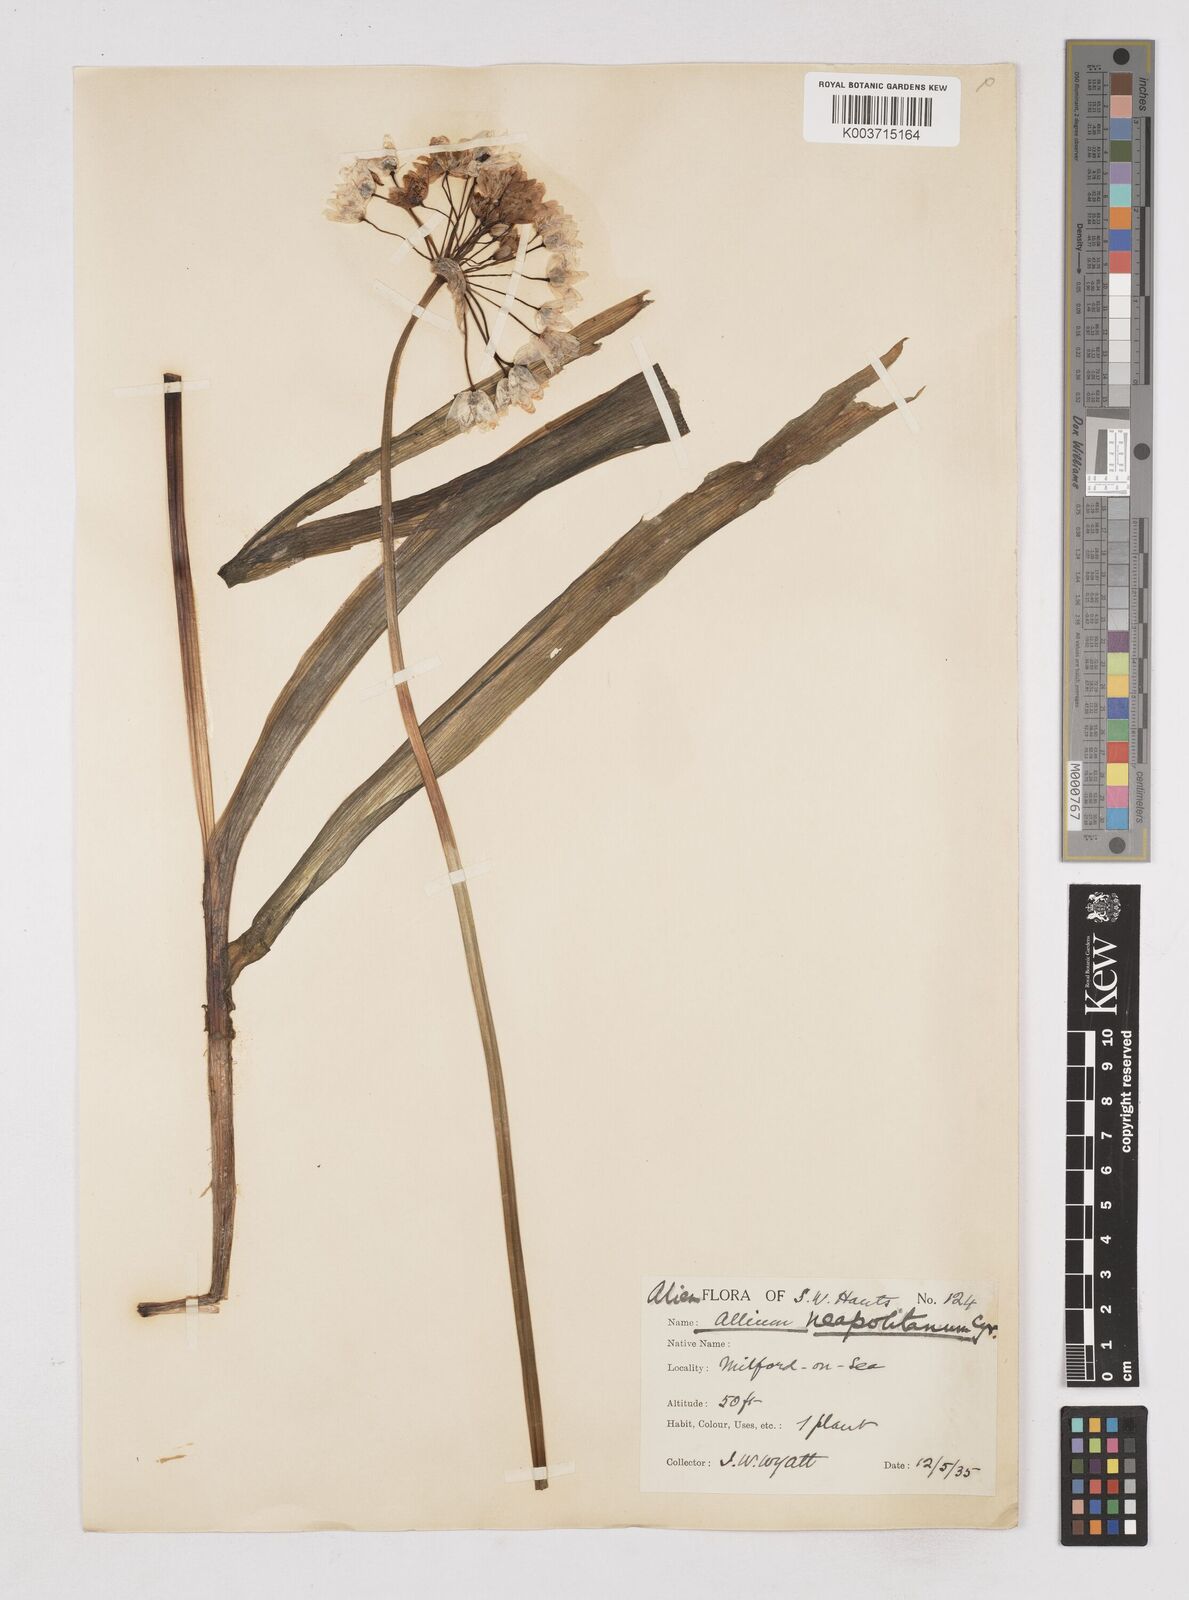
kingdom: Plantae
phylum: Tracheophyta
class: Liliopsida
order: Asparagales
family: Amaryllidaceae
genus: Allium
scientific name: Allium neapolitanum
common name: Neapolitan garlic
